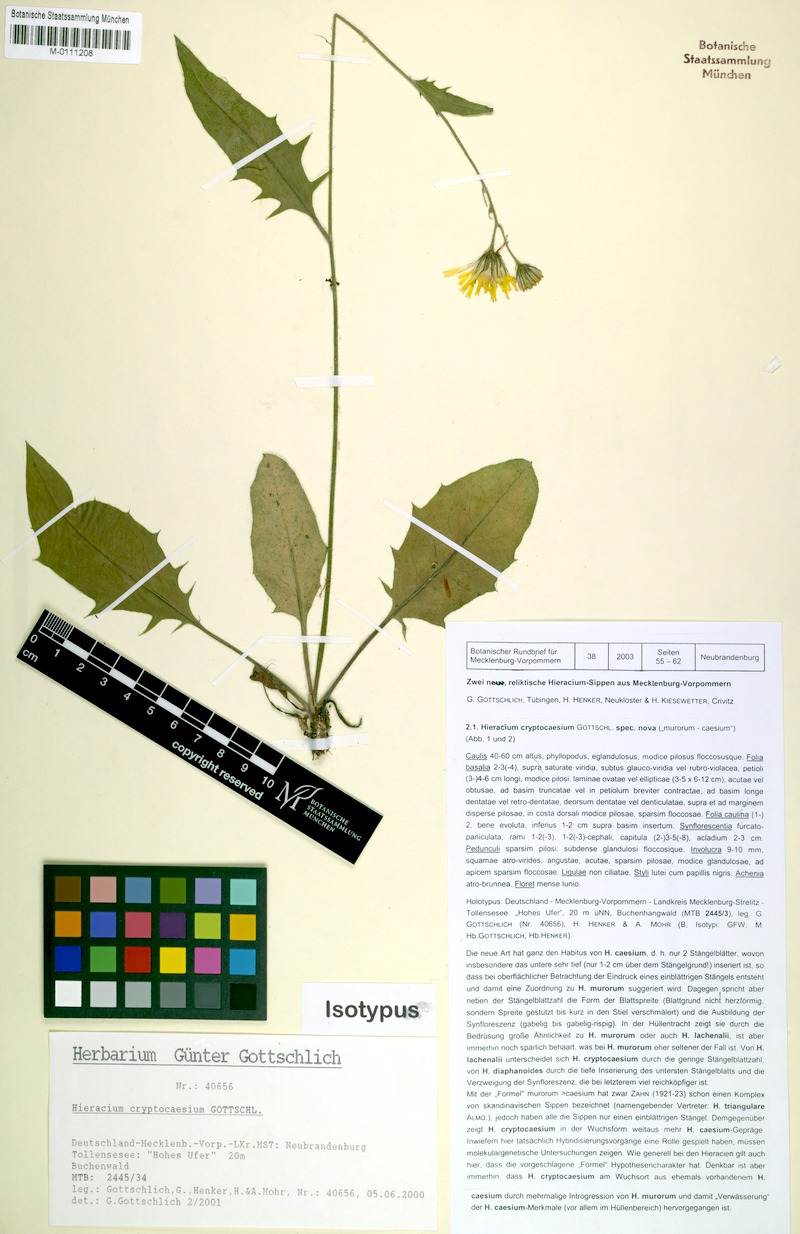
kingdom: Plantae
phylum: Tracheophyta
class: Magnoliopsida
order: Asterales
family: Asteraceae
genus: Hieracium
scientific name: Hieracium cryptocaesium
